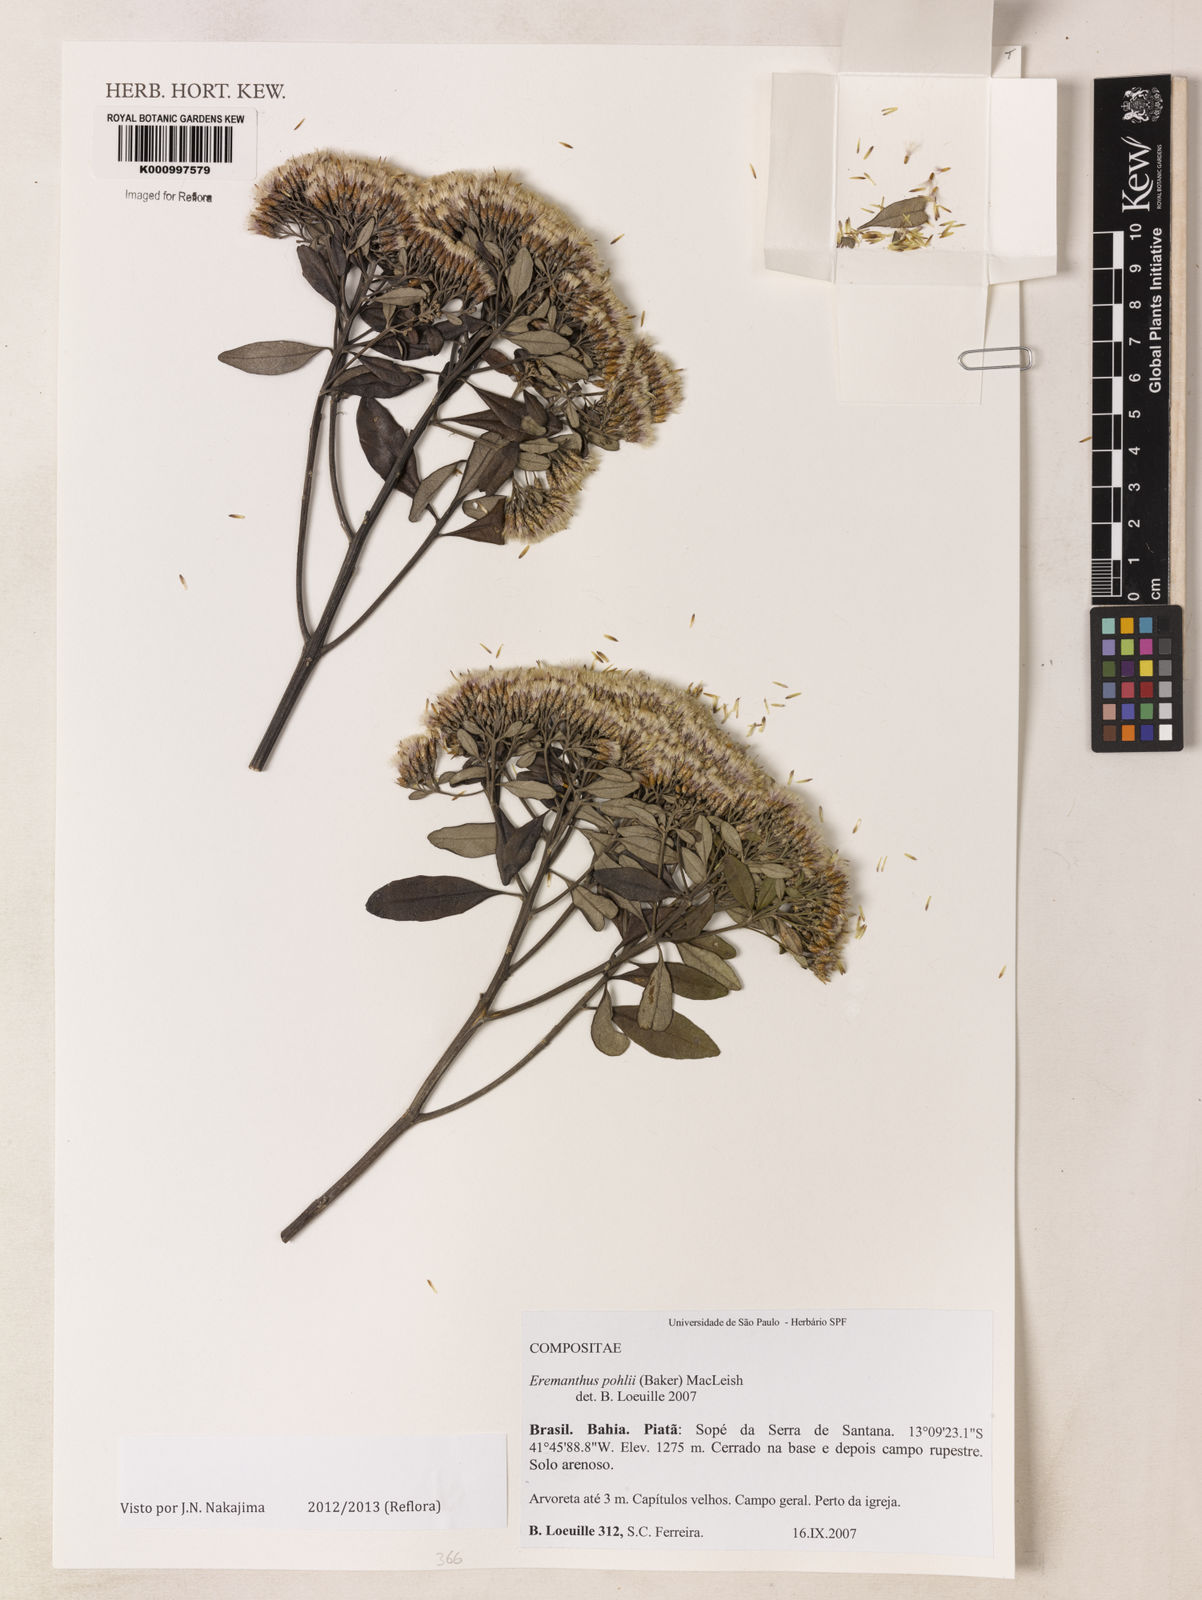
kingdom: Plantae
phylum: Tracheophyta
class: Magnoliopsida
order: Asterales
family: Asteraceae
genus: Eremanthus
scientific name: Eremanthus capitatus
